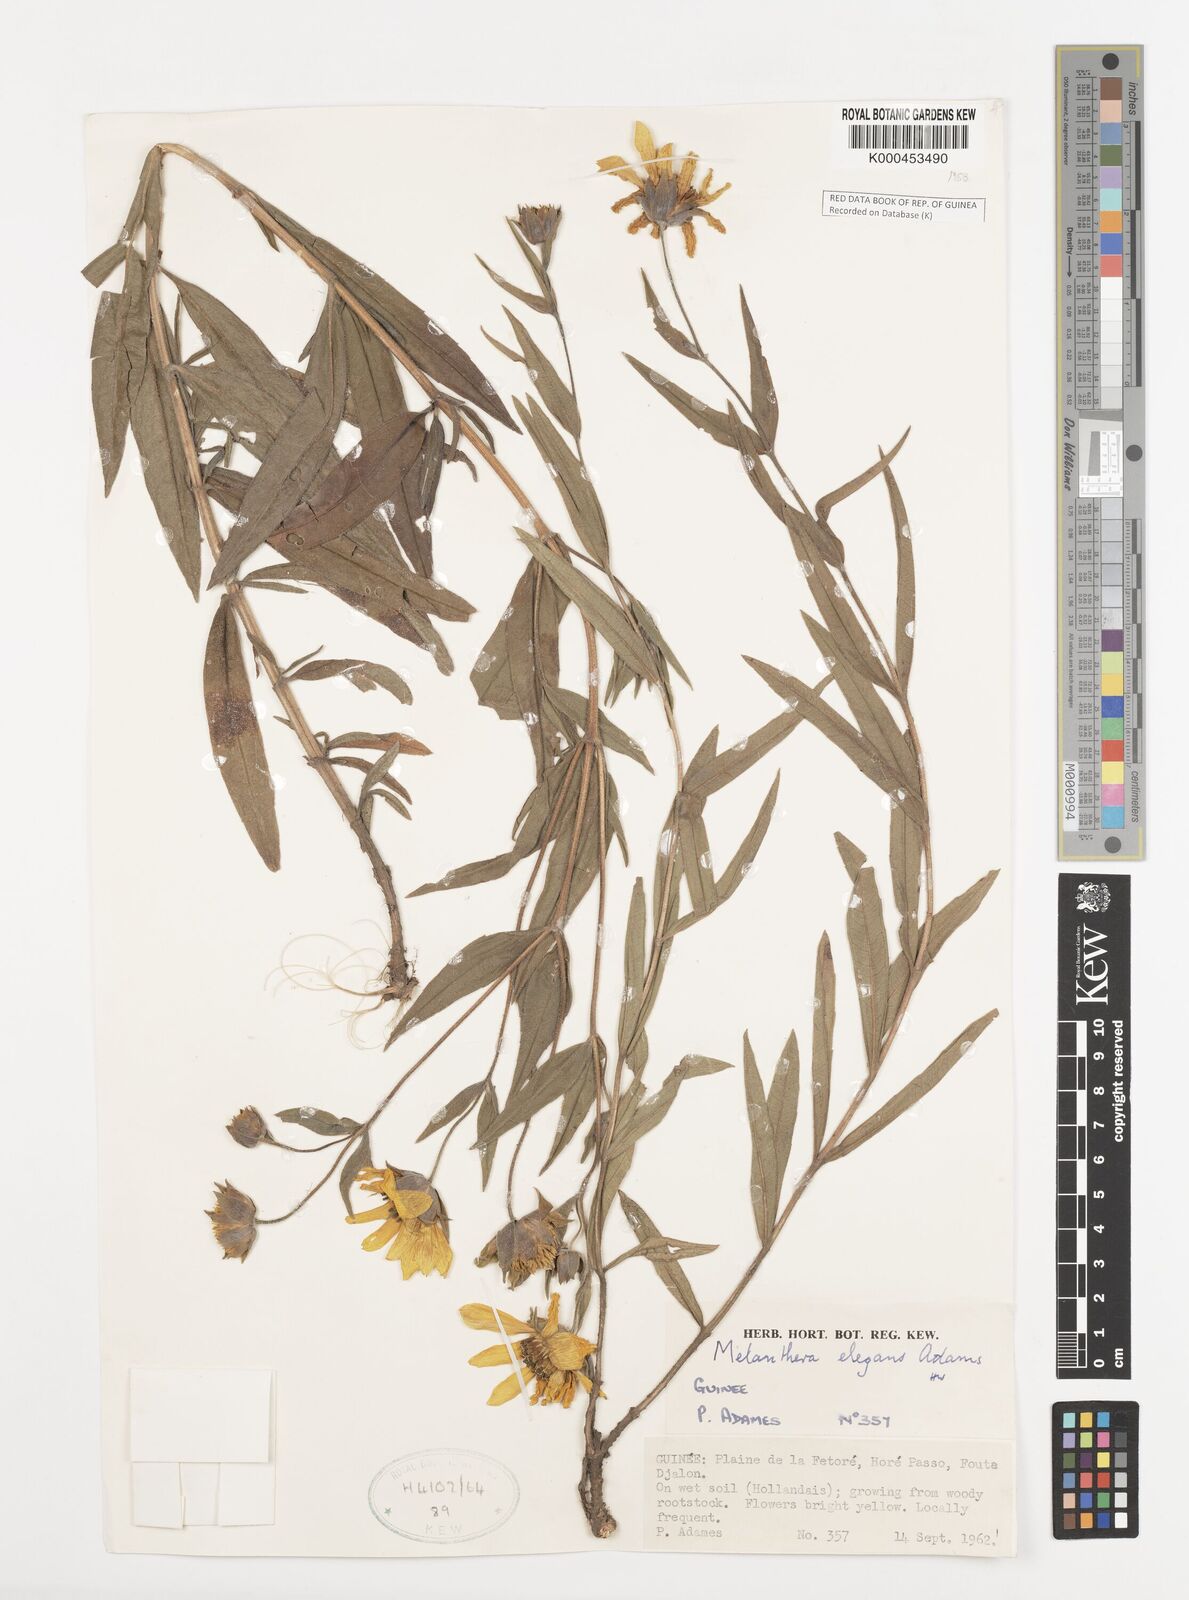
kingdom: Plantae
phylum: Tracheophyta
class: Magnoliopsida
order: Asterales
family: Asteraceae
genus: Aspilia
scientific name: Aspilia lisowskiana
